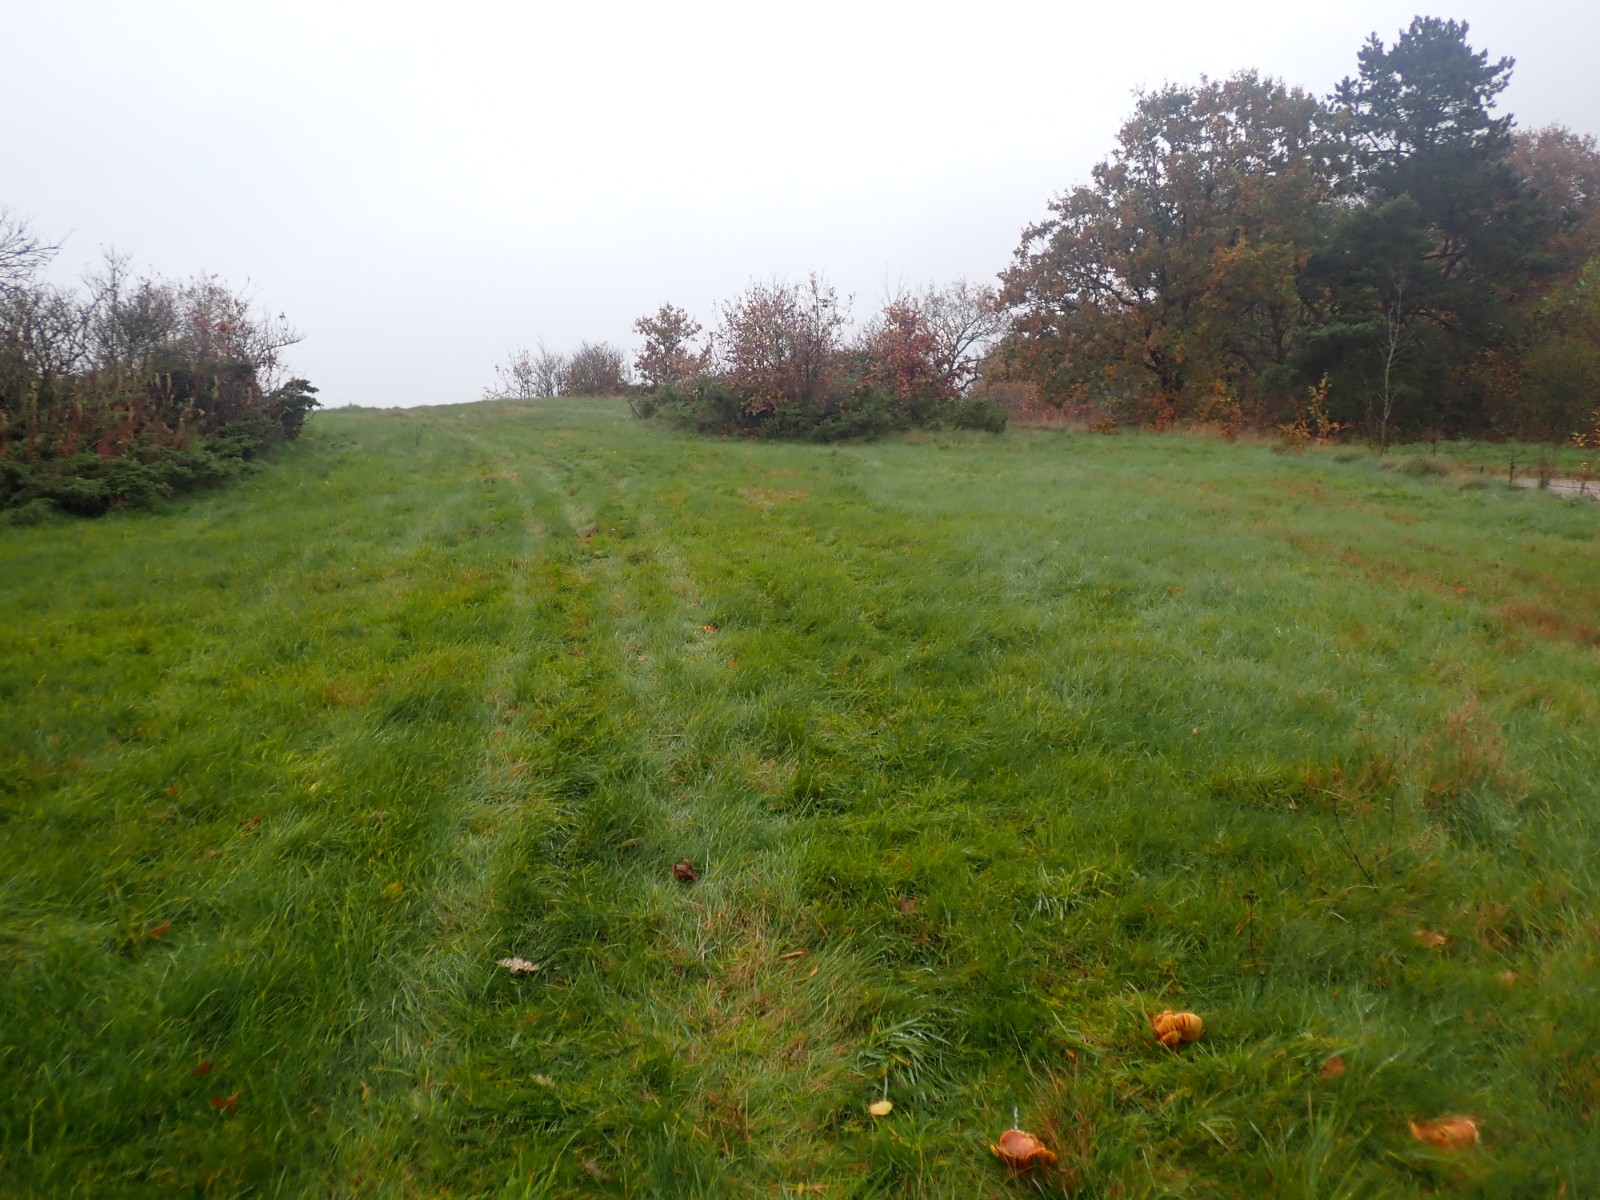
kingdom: Fungi
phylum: Basidiomycota
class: Agaricomycetes
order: Agaricales
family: Hygrophoraceae
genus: Hygrocybe
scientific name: Hygrocybe punicea
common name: skarlagen-vokshat
